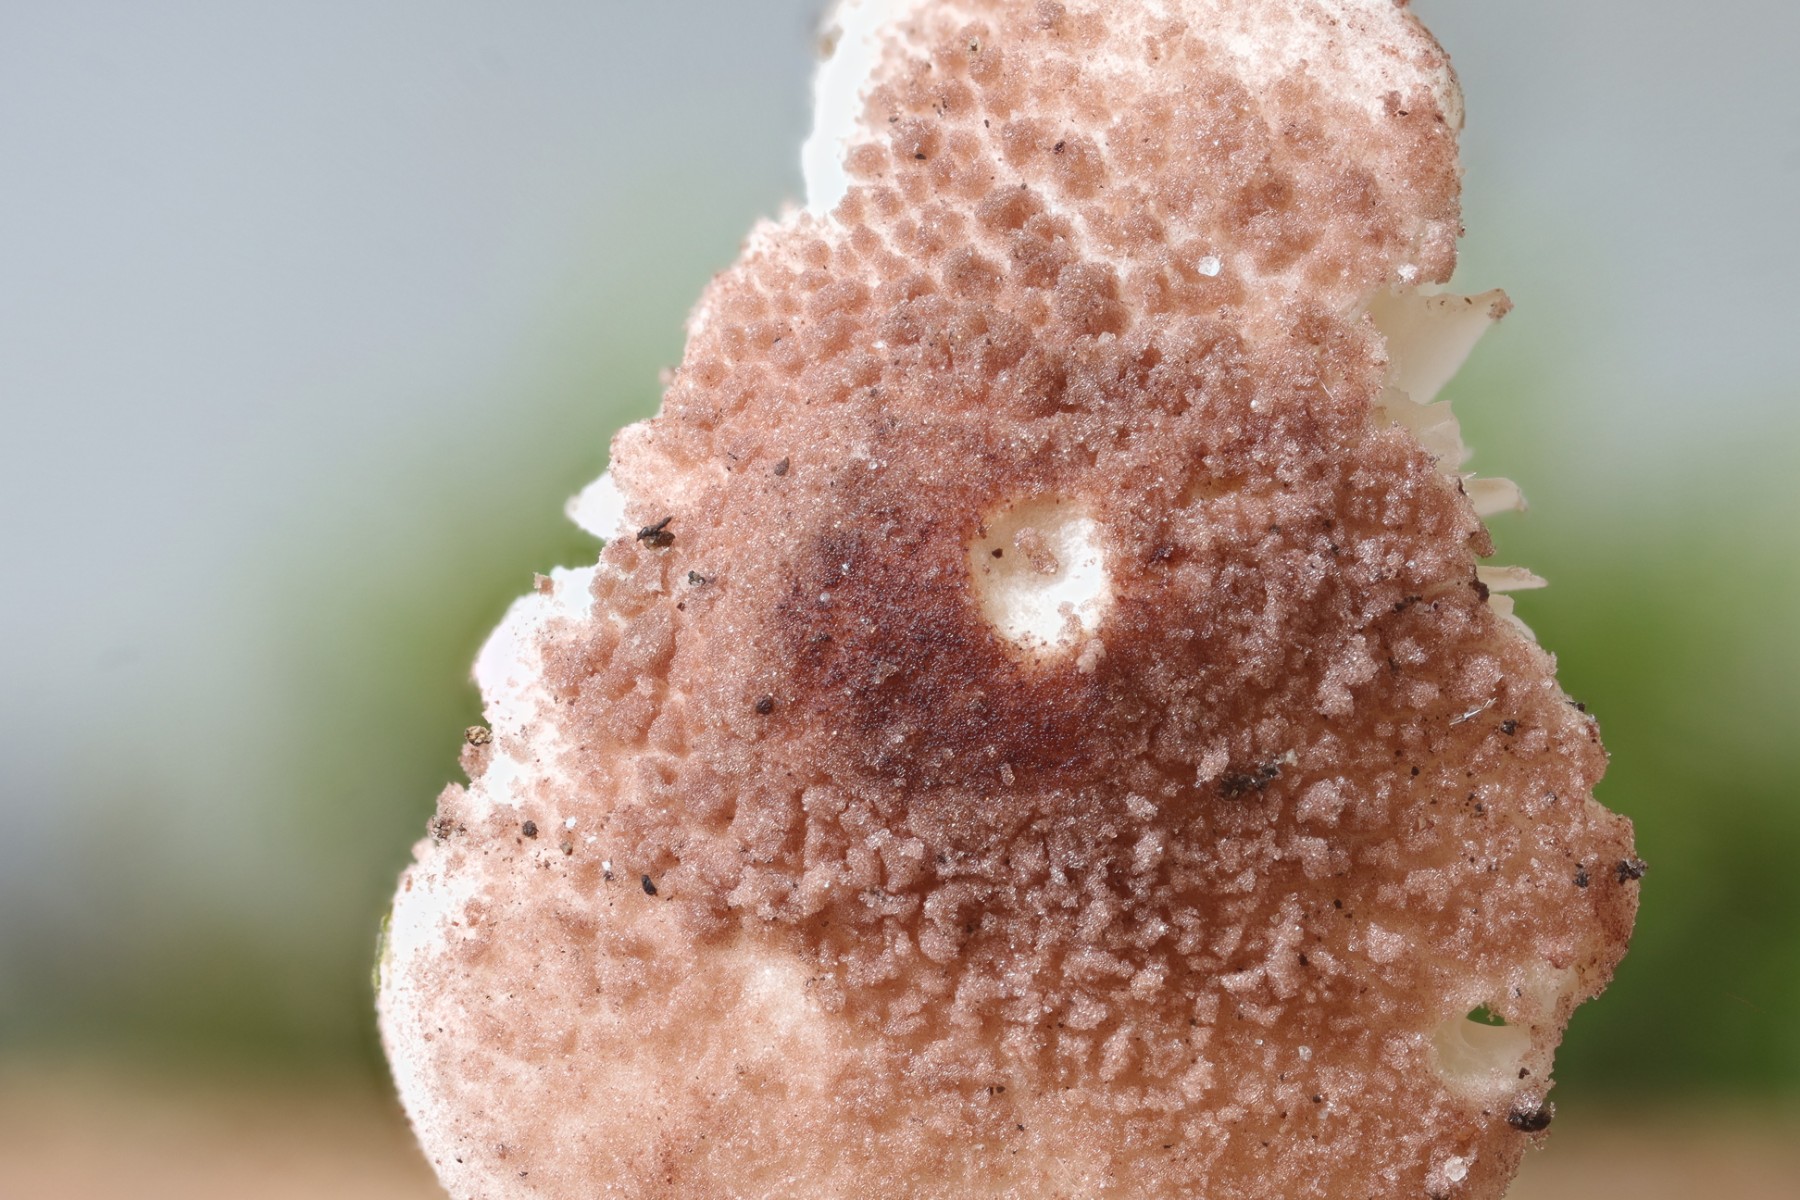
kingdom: Fungi
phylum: Basidiomycota
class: Agaricomycetes
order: Agaricales
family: Agaricaceae
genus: Cystolepiota
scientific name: Cystolepiota moelleri
